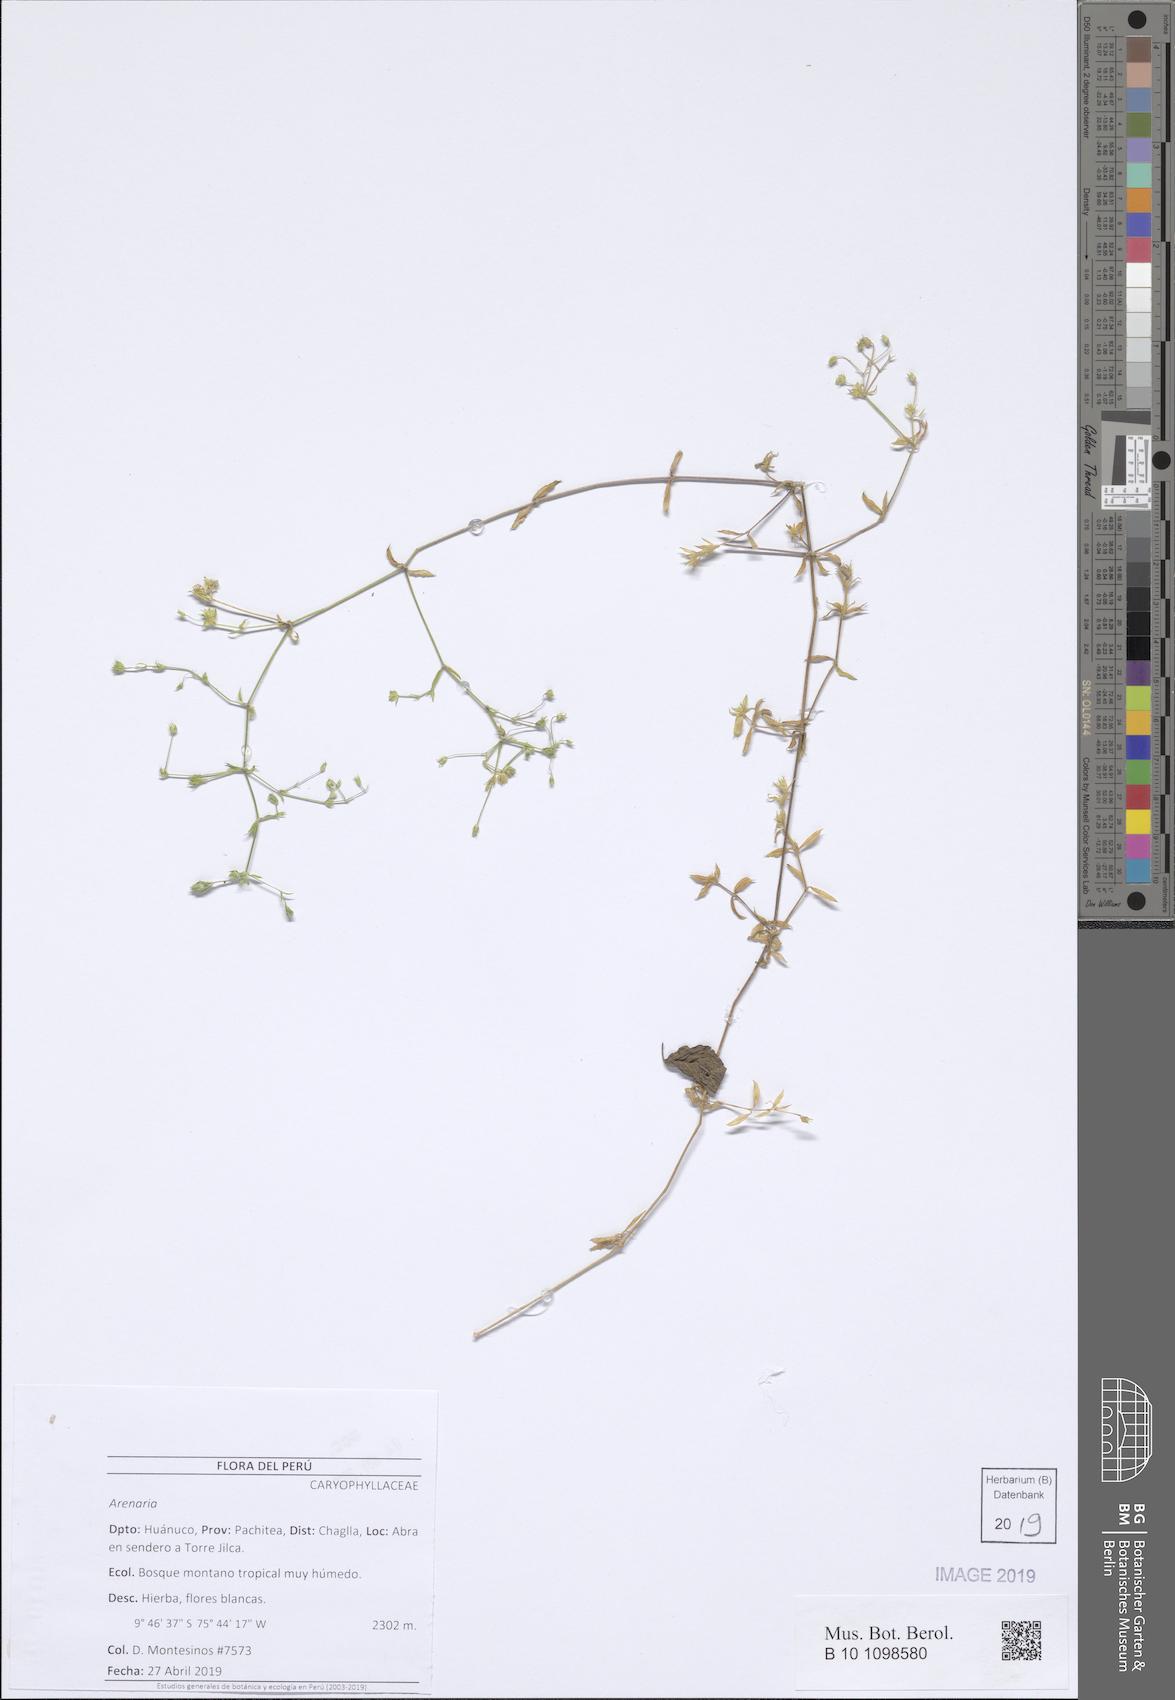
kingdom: Plantae
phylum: Tracheophyta
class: Magnoliopsida
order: Caryophyllales
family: Caryophyllaceae
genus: Arenaria
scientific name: Arenaria
